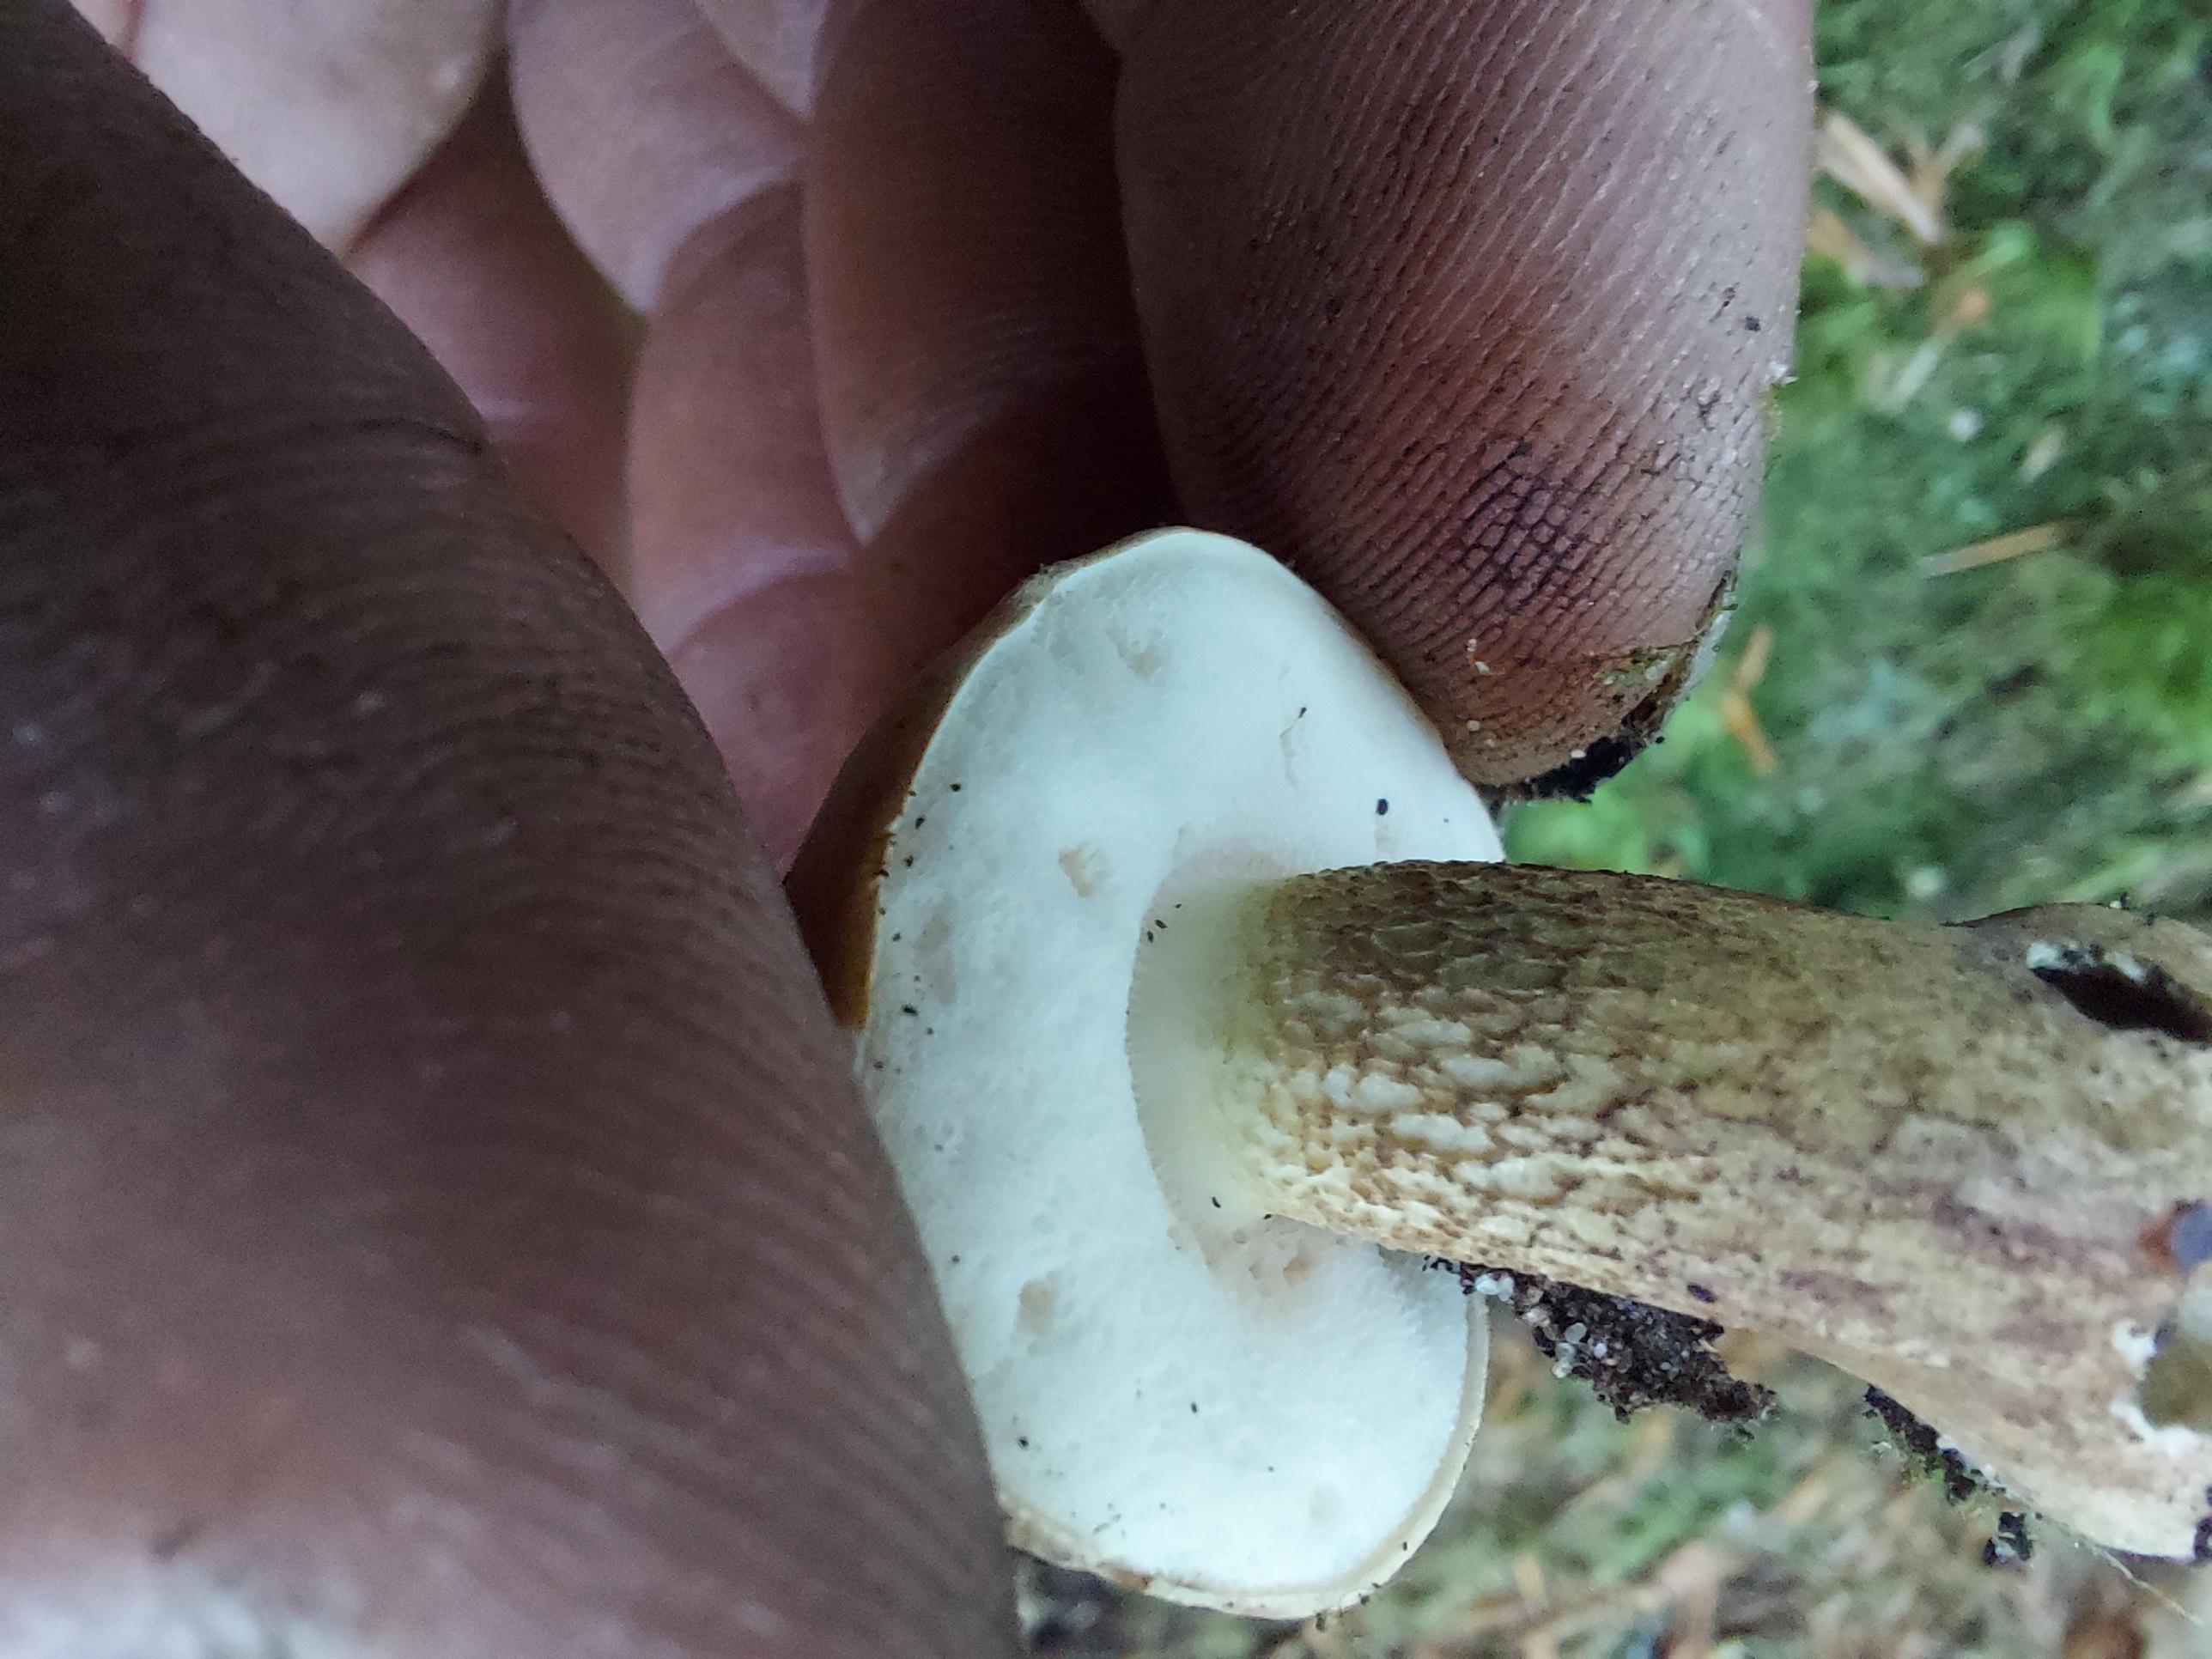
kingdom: Fungi
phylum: Basidiomycota
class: Agaricomycetes
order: Boletales
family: Boletaceae
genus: Tylopilus
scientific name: Tylopilus felleus
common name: galderørhat
